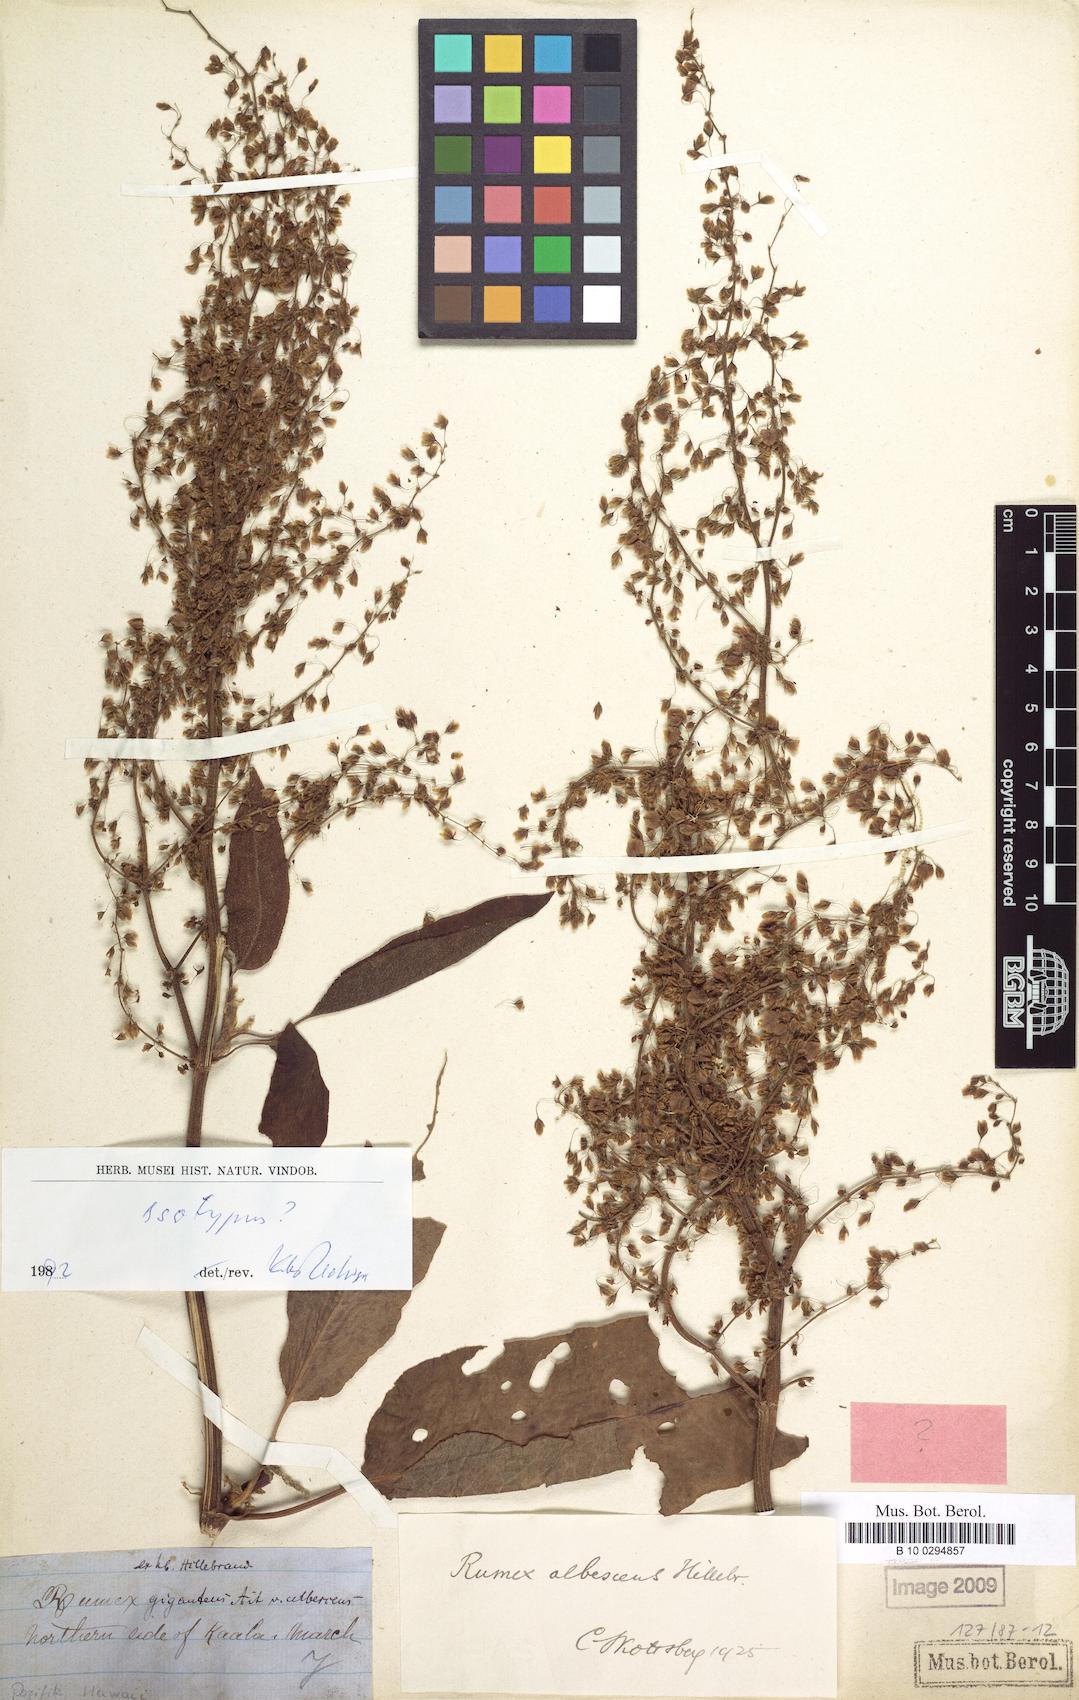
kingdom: Plantae
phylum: Tracheophyta
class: Magnoliopsida
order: Caryophyllales
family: Polygonaceae
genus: Rumex
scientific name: Rumex albescens
